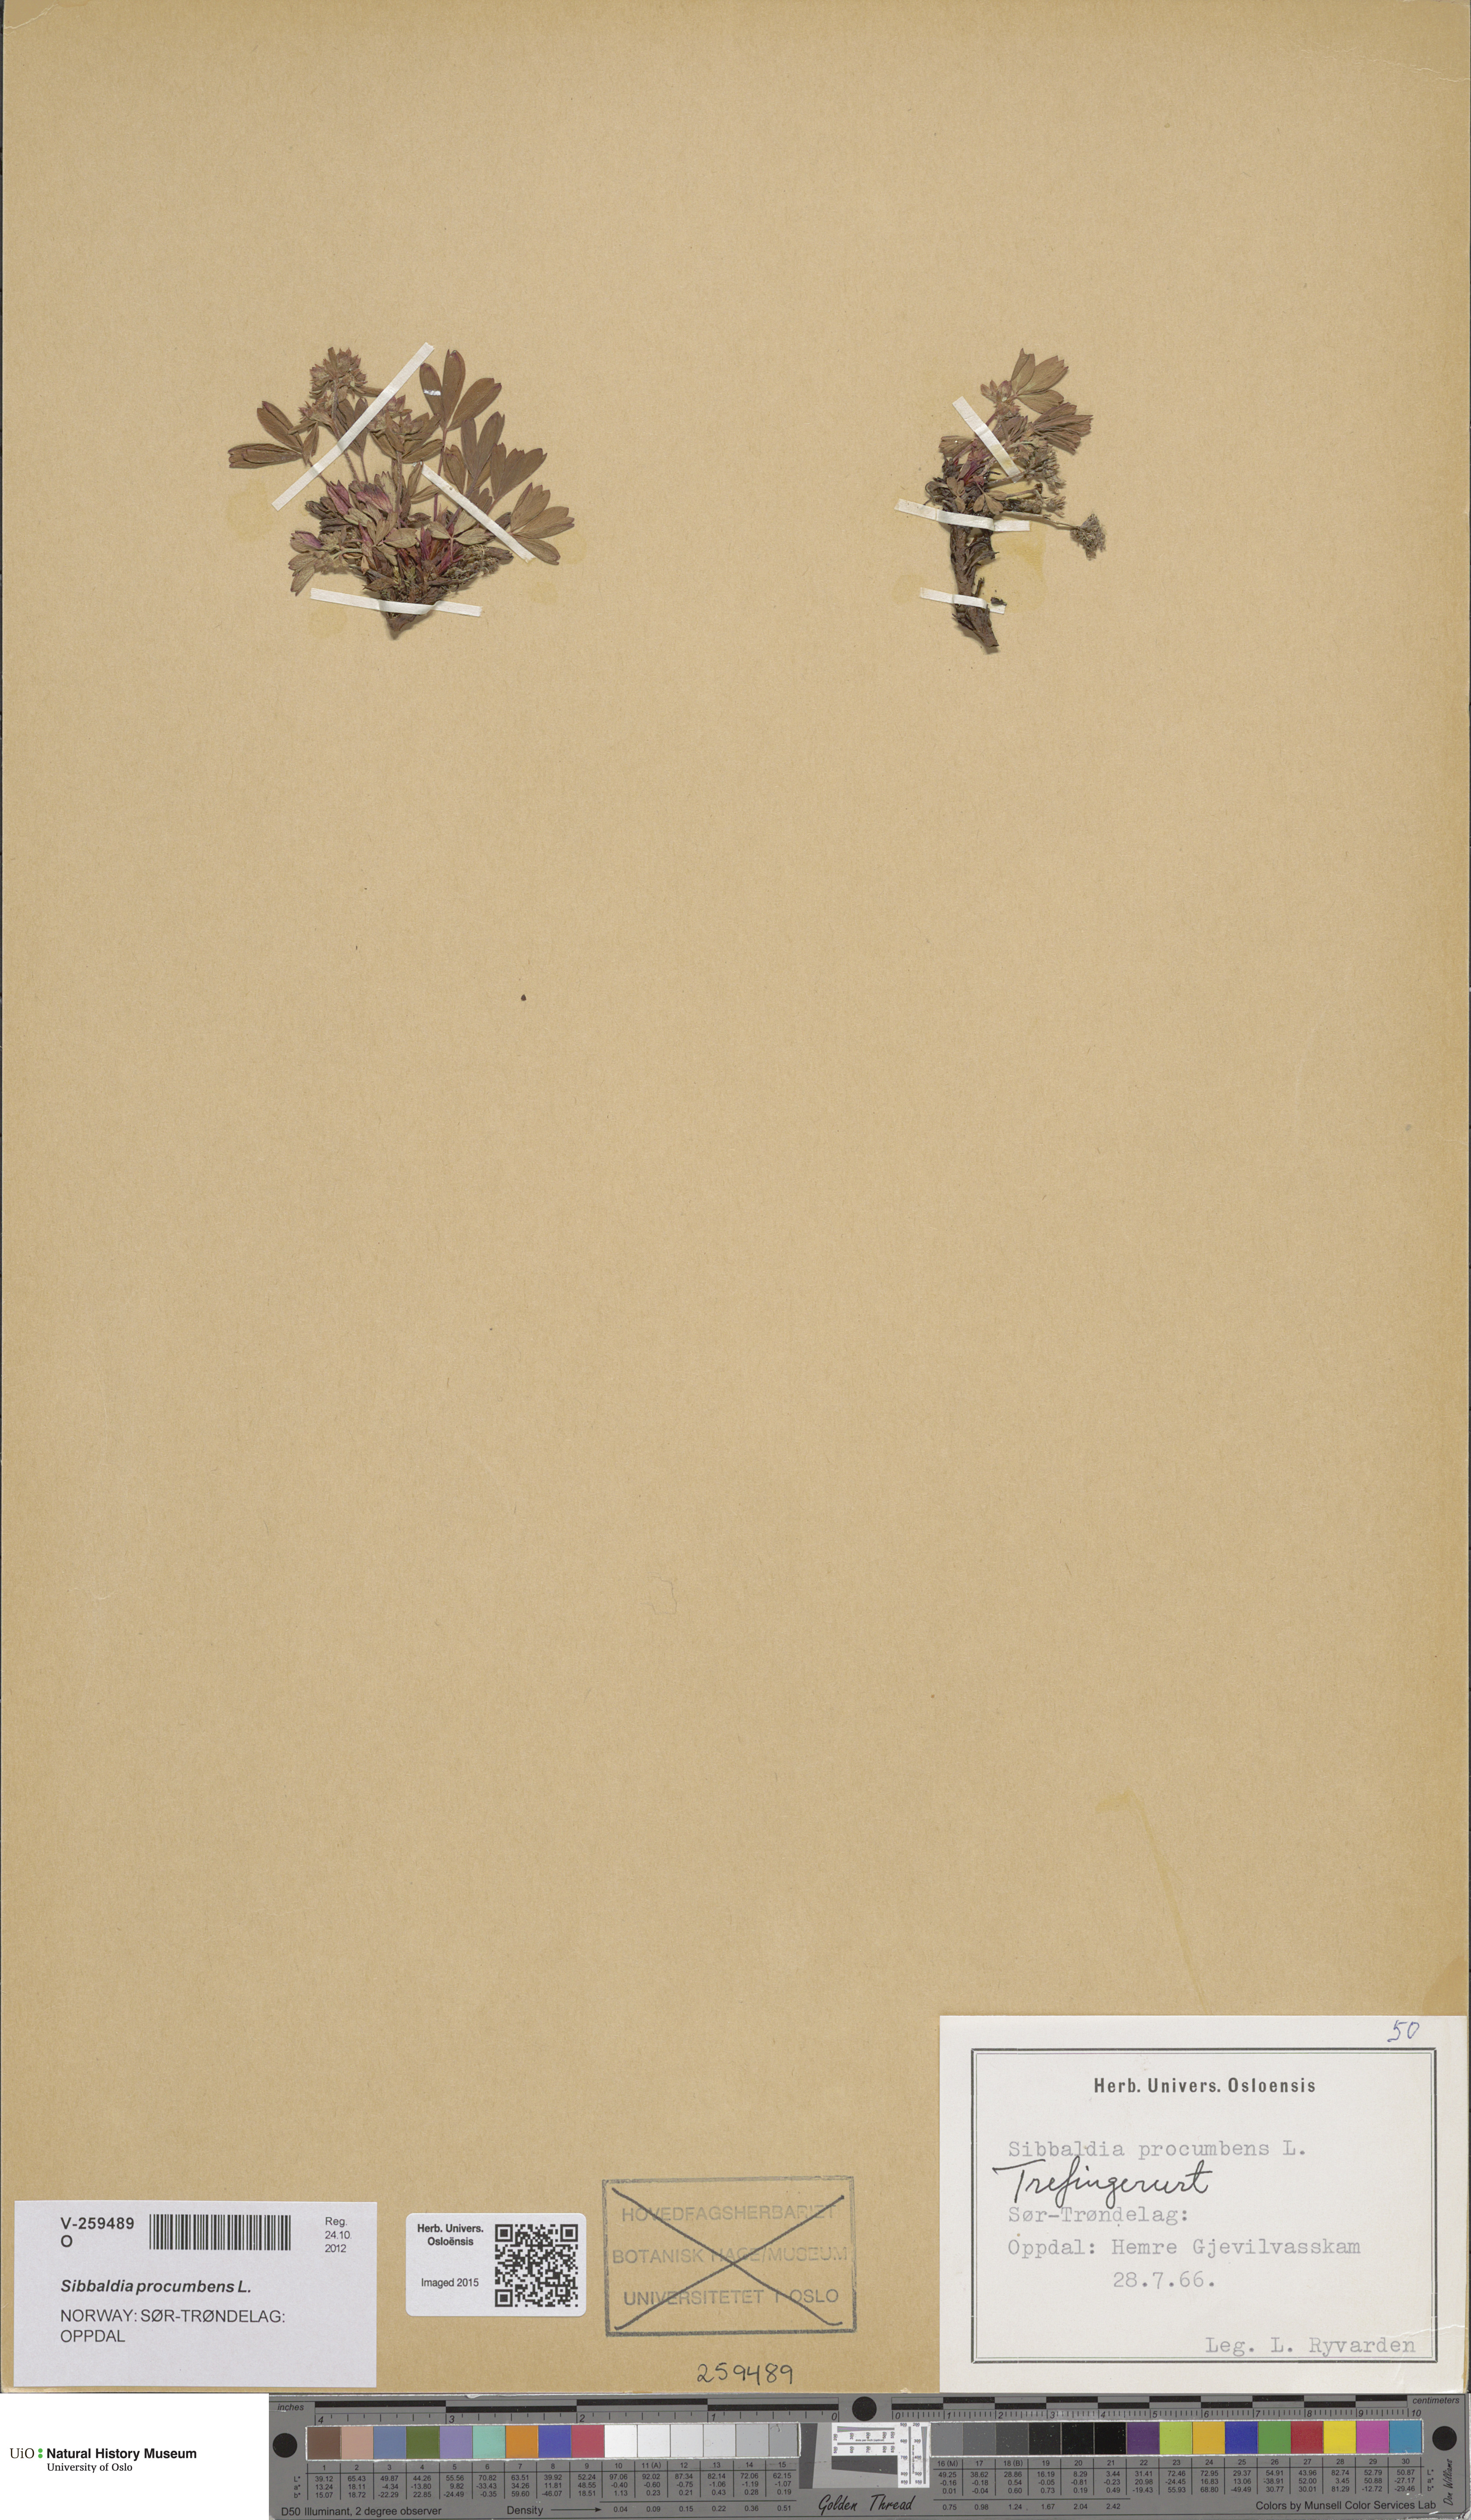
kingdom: Plantae
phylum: Tracheophyta
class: Magnoliopsida
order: Rosales
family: Rosaceae
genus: Sibbaldia
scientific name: Sibbaldia procumbens
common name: Creeping sibbaldia
